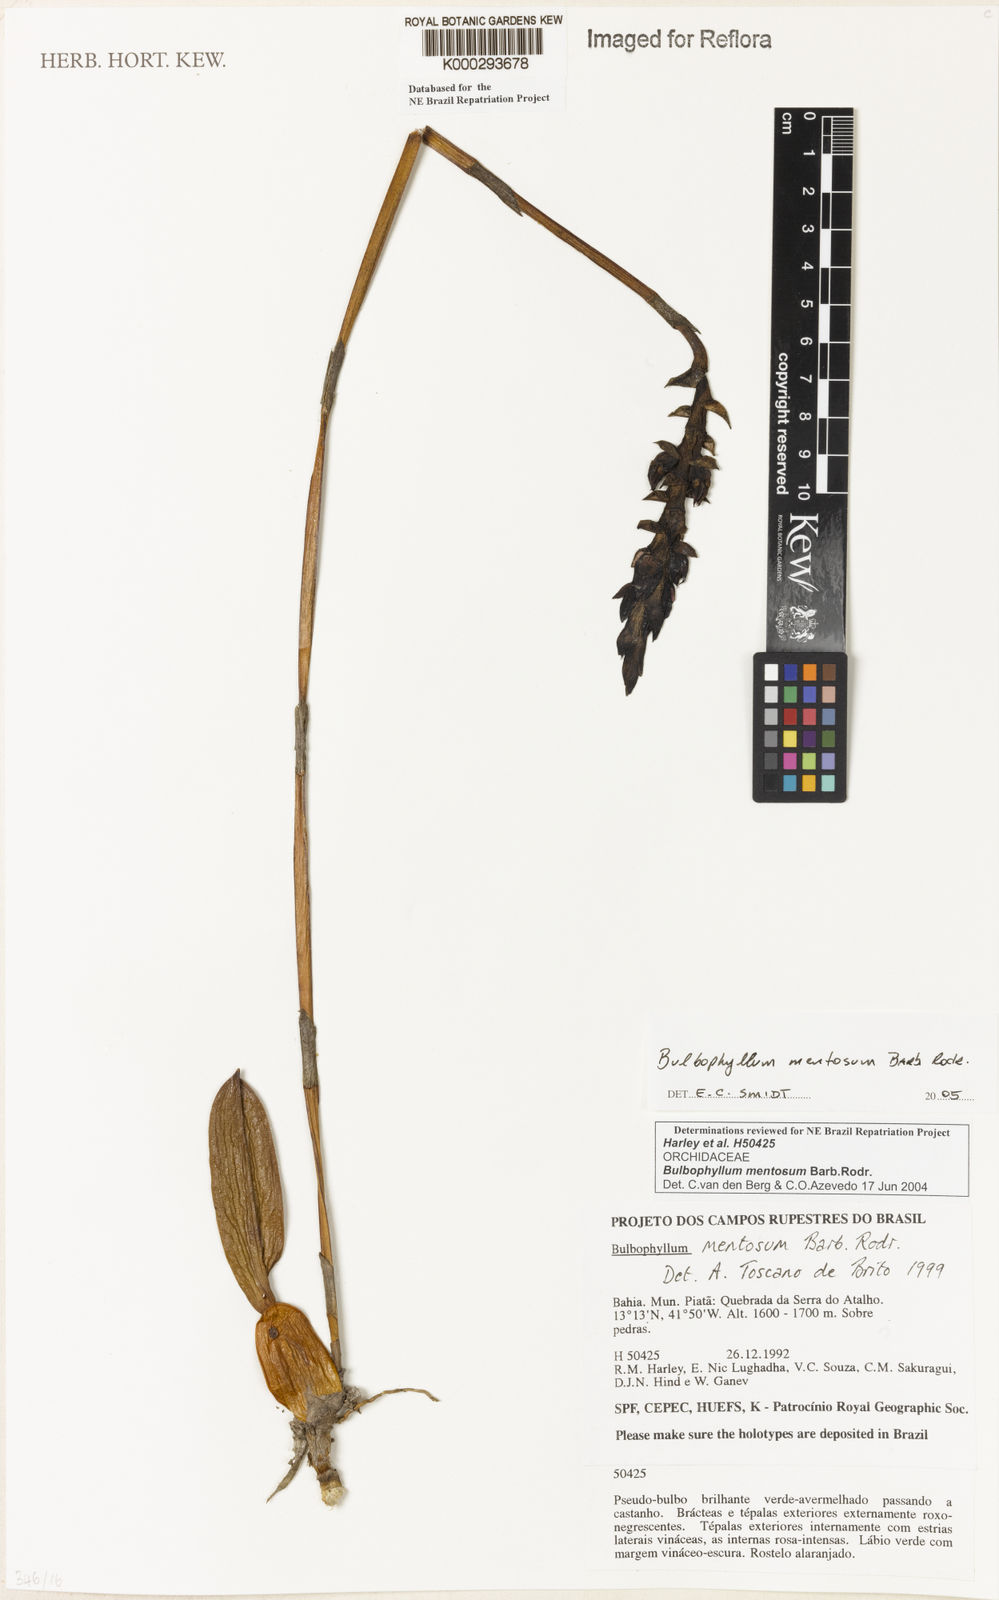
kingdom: Plantae
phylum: Tracheophyta
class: Liliopsida
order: Asparagales
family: Orchidaceae
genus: Bulbophyllum
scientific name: Bulbophyllum mentosum
